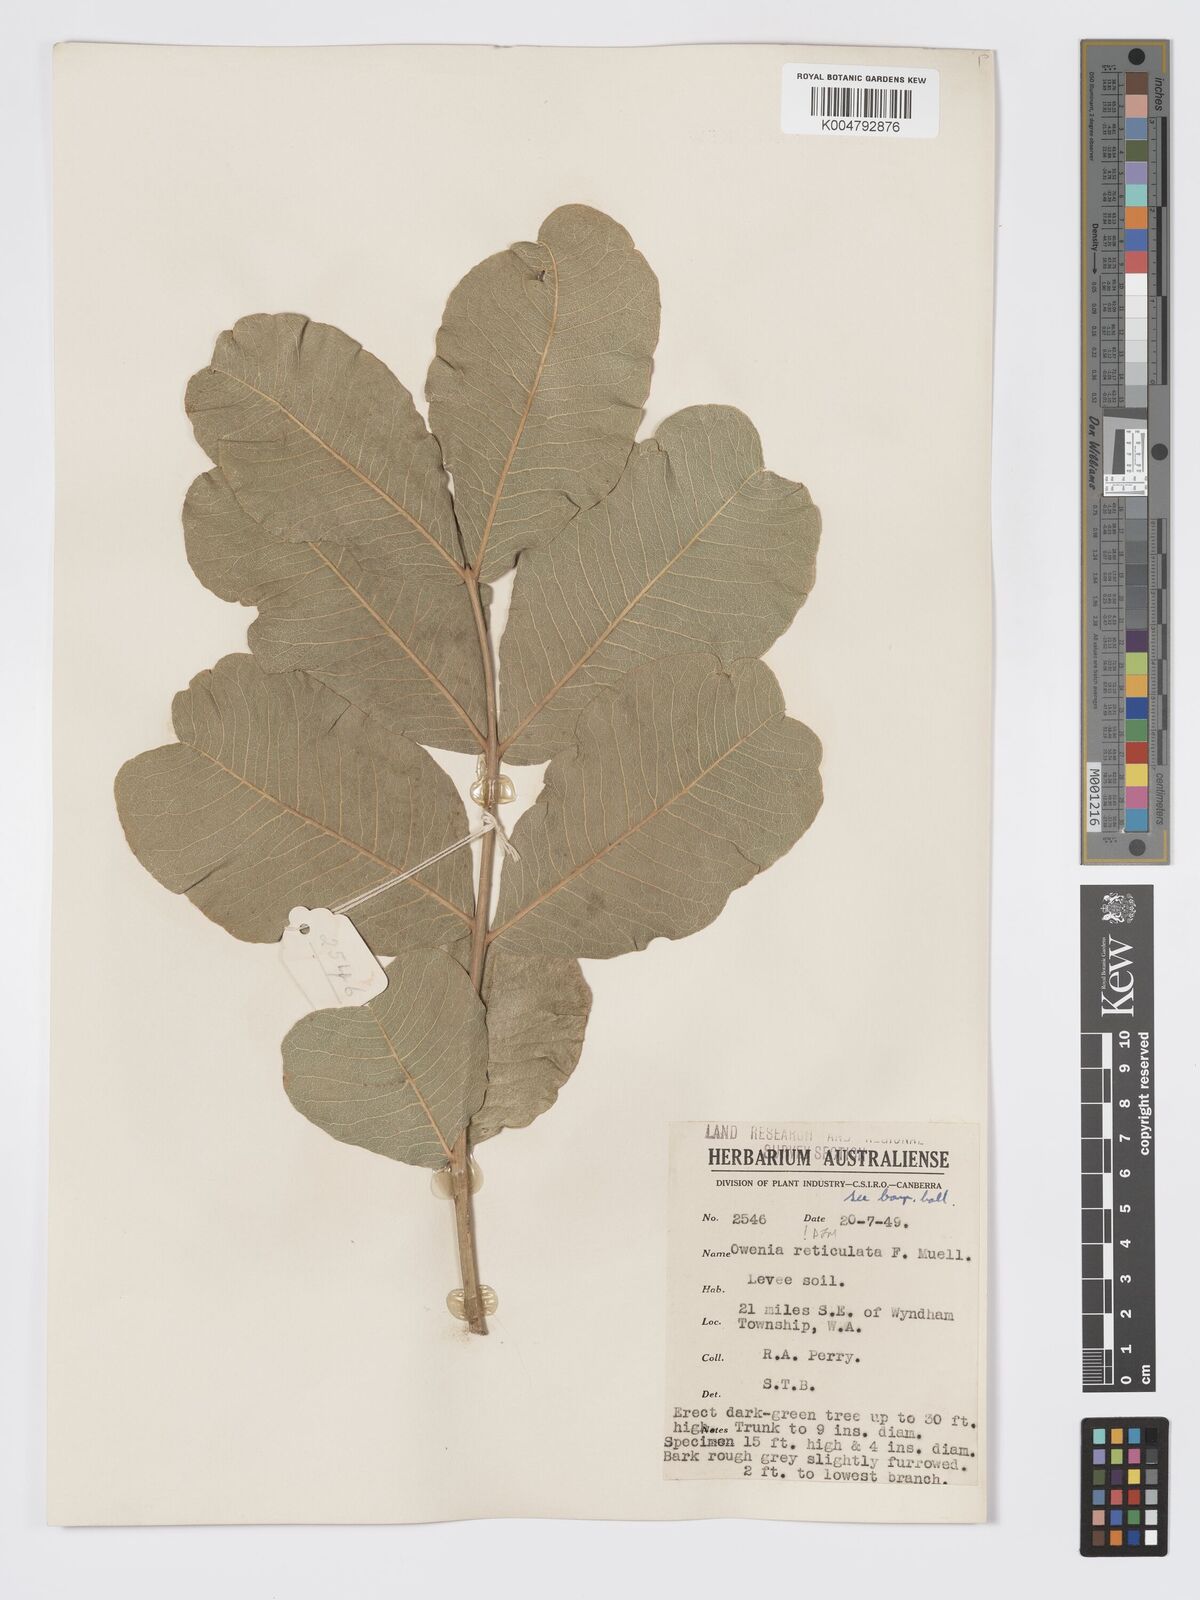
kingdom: Plantae
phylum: Tracheophyta
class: Magnoliopsida
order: Sapindales
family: Meliaceae
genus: Owenia
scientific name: Owenia reticulata
